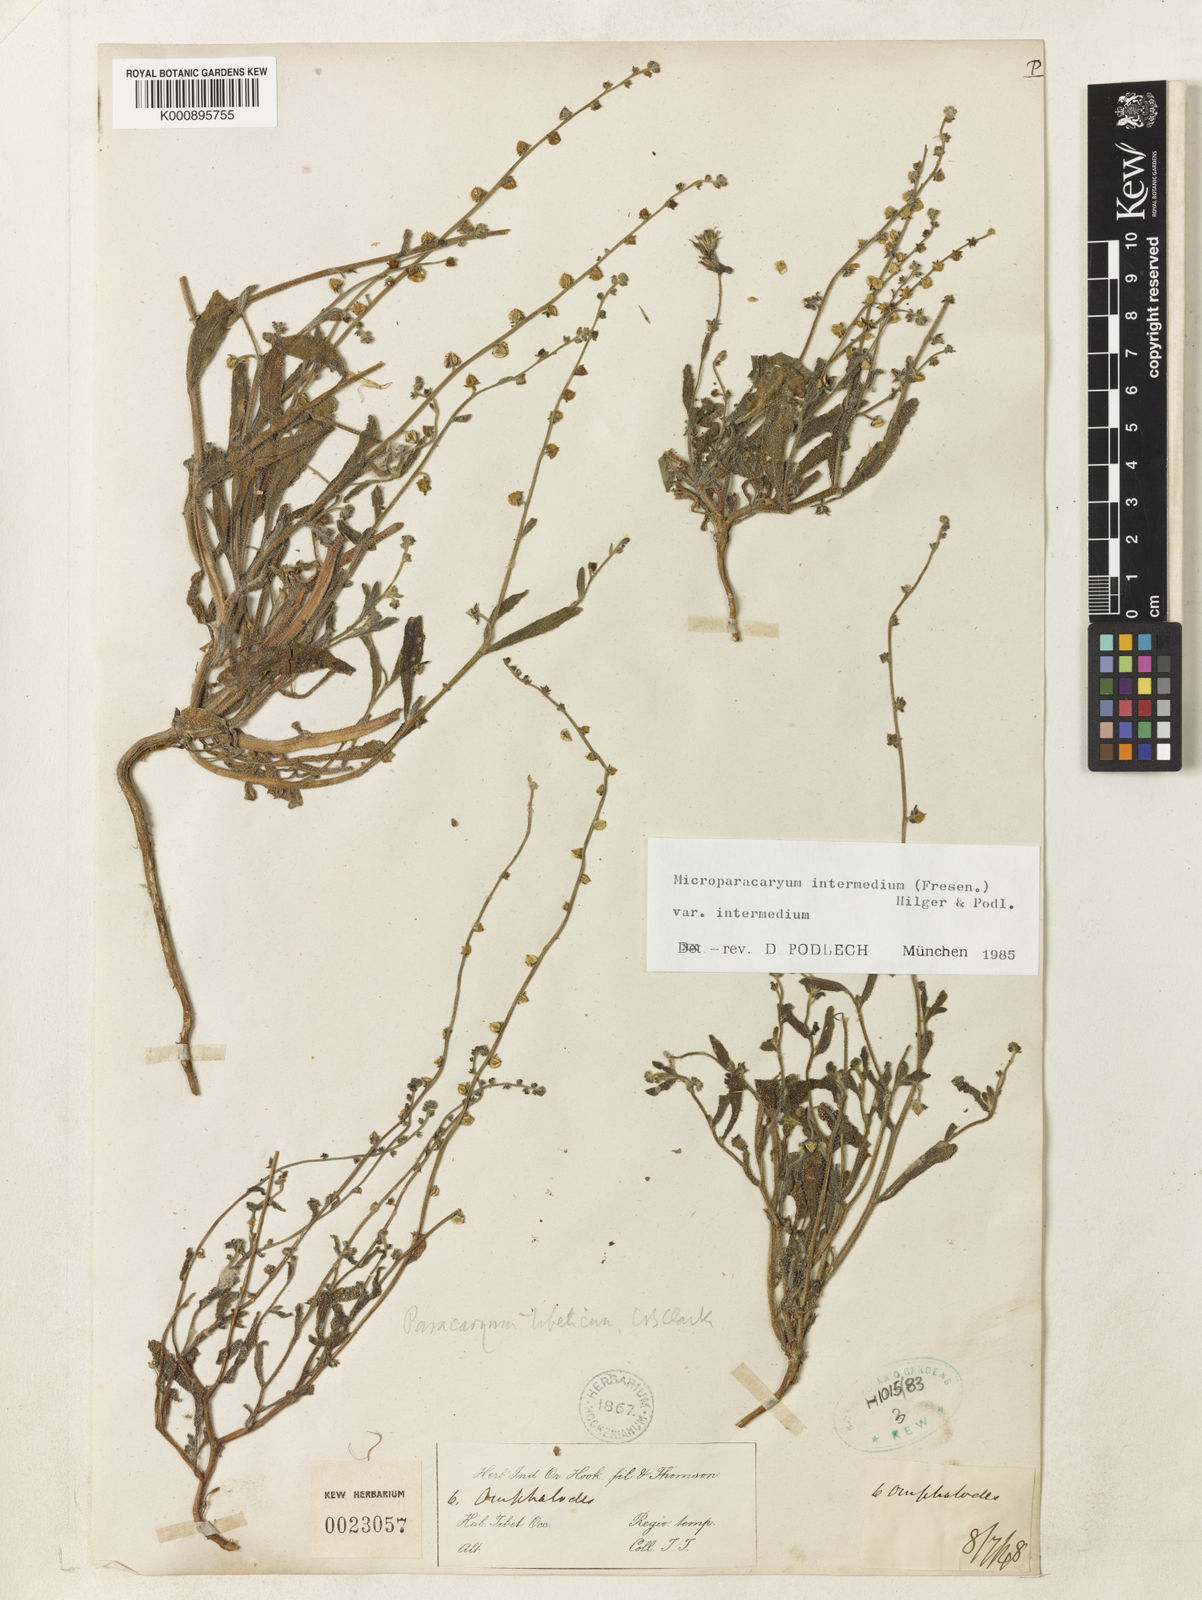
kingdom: Plantae
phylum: Tracheophyta
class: Magnoliopsida
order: Boraginales
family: Boraginaceae
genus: Microparacaryum
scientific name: Microparacaryum intermedium
